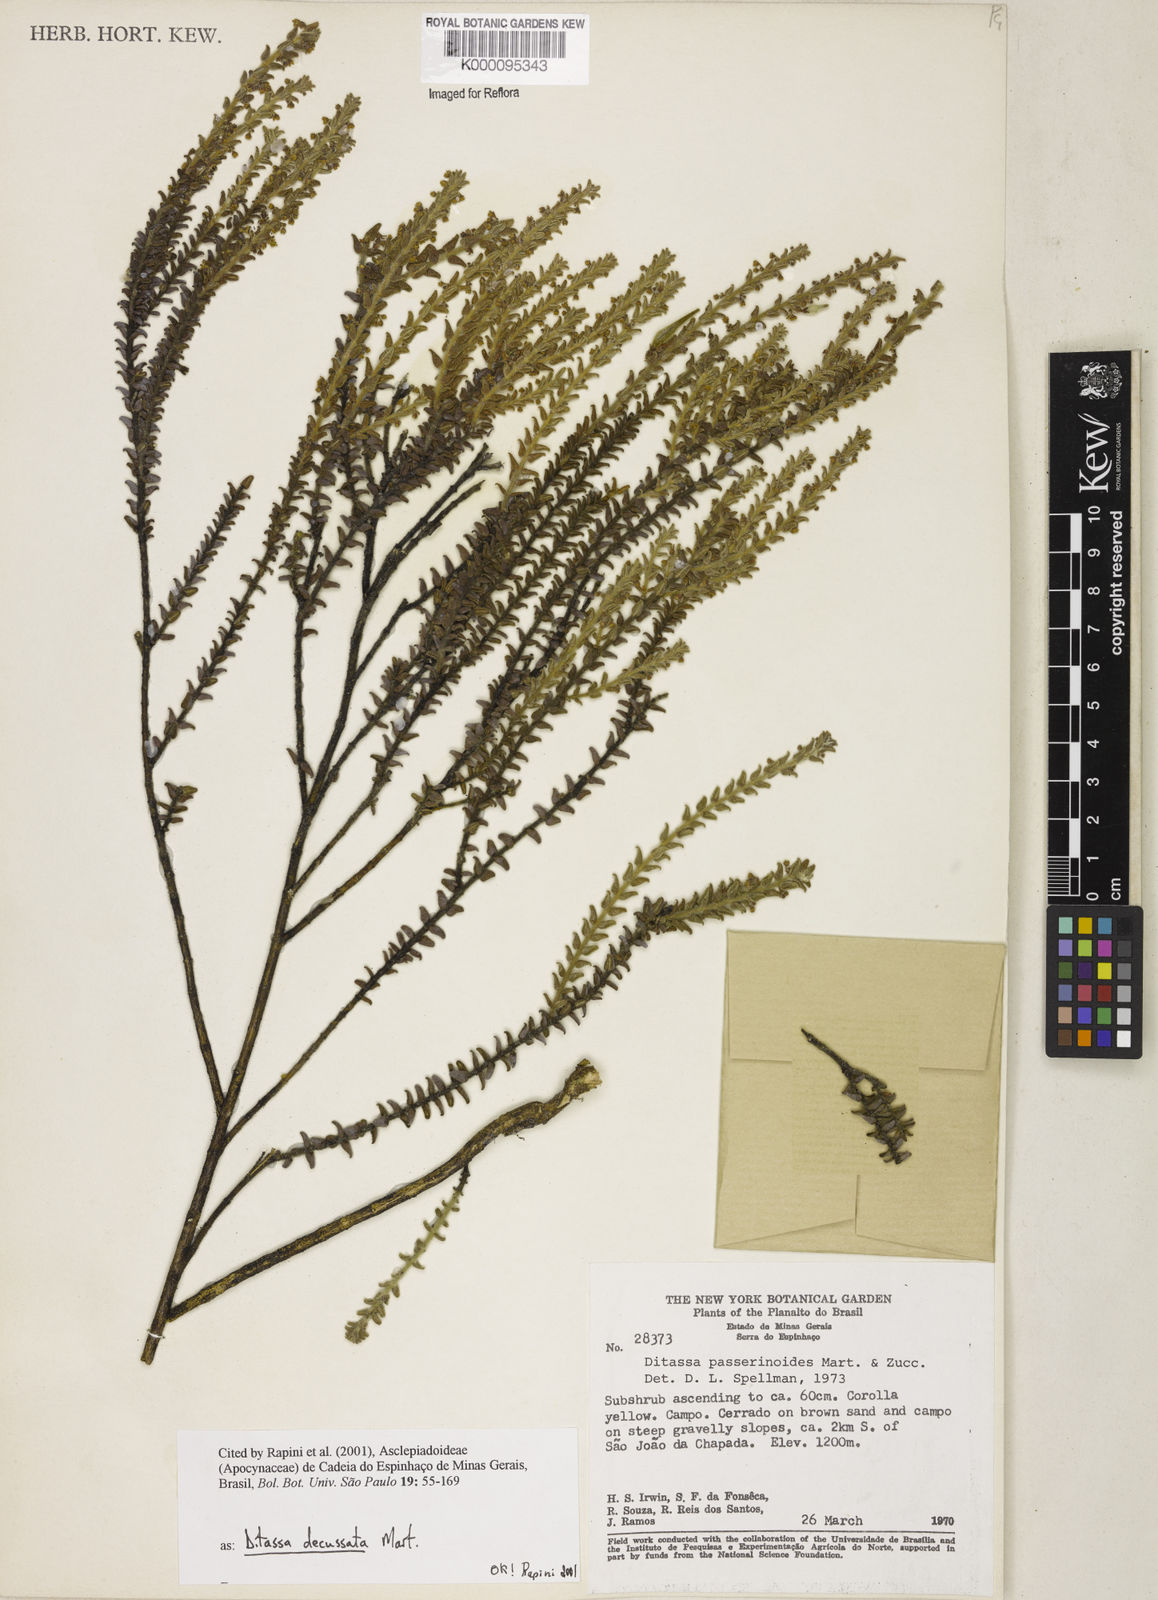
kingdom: Plantae
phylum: Tracheophyta
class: Magnoliopsida
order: Gentianales
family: Apocynaceae
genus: Minaria
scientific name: Minaria decussata
